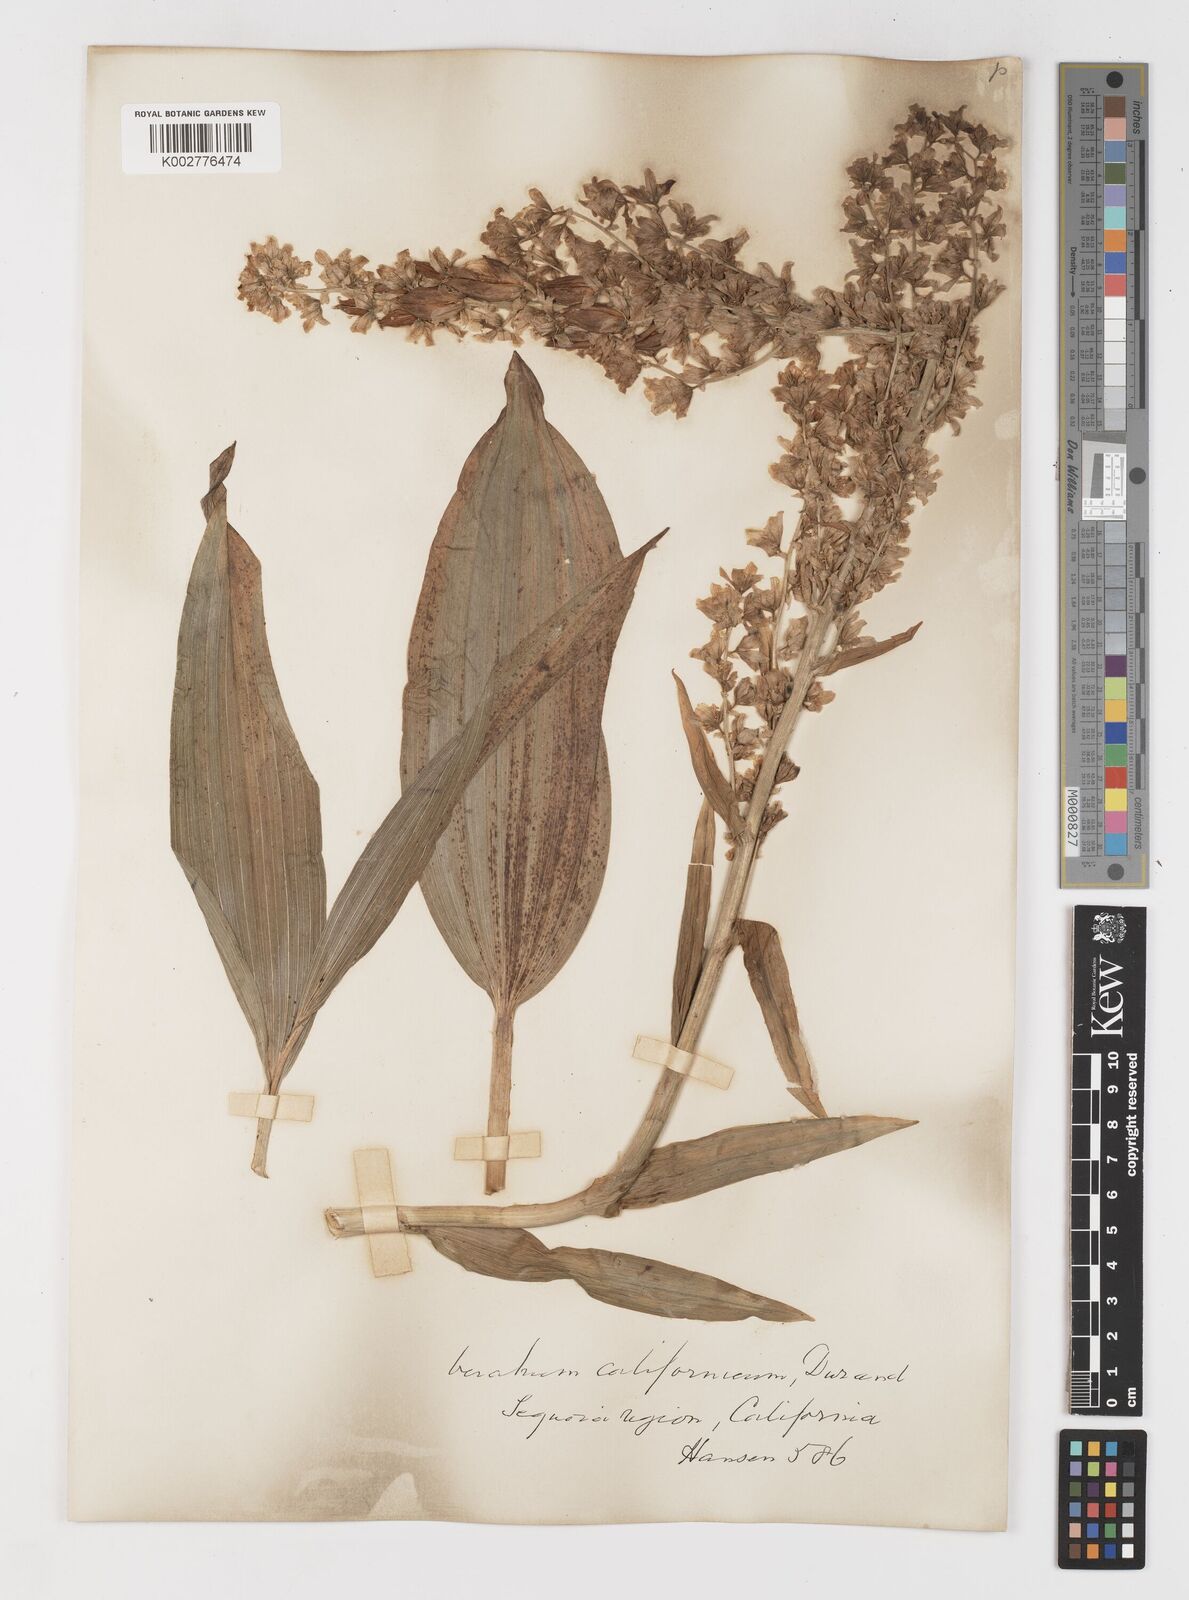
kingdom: Plantae
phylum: Tracheophyta
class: Liliopsida
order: Liliales
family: Melanthiaceae
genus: Veratrum
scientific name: Veratrum californicum
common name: California veratrum
